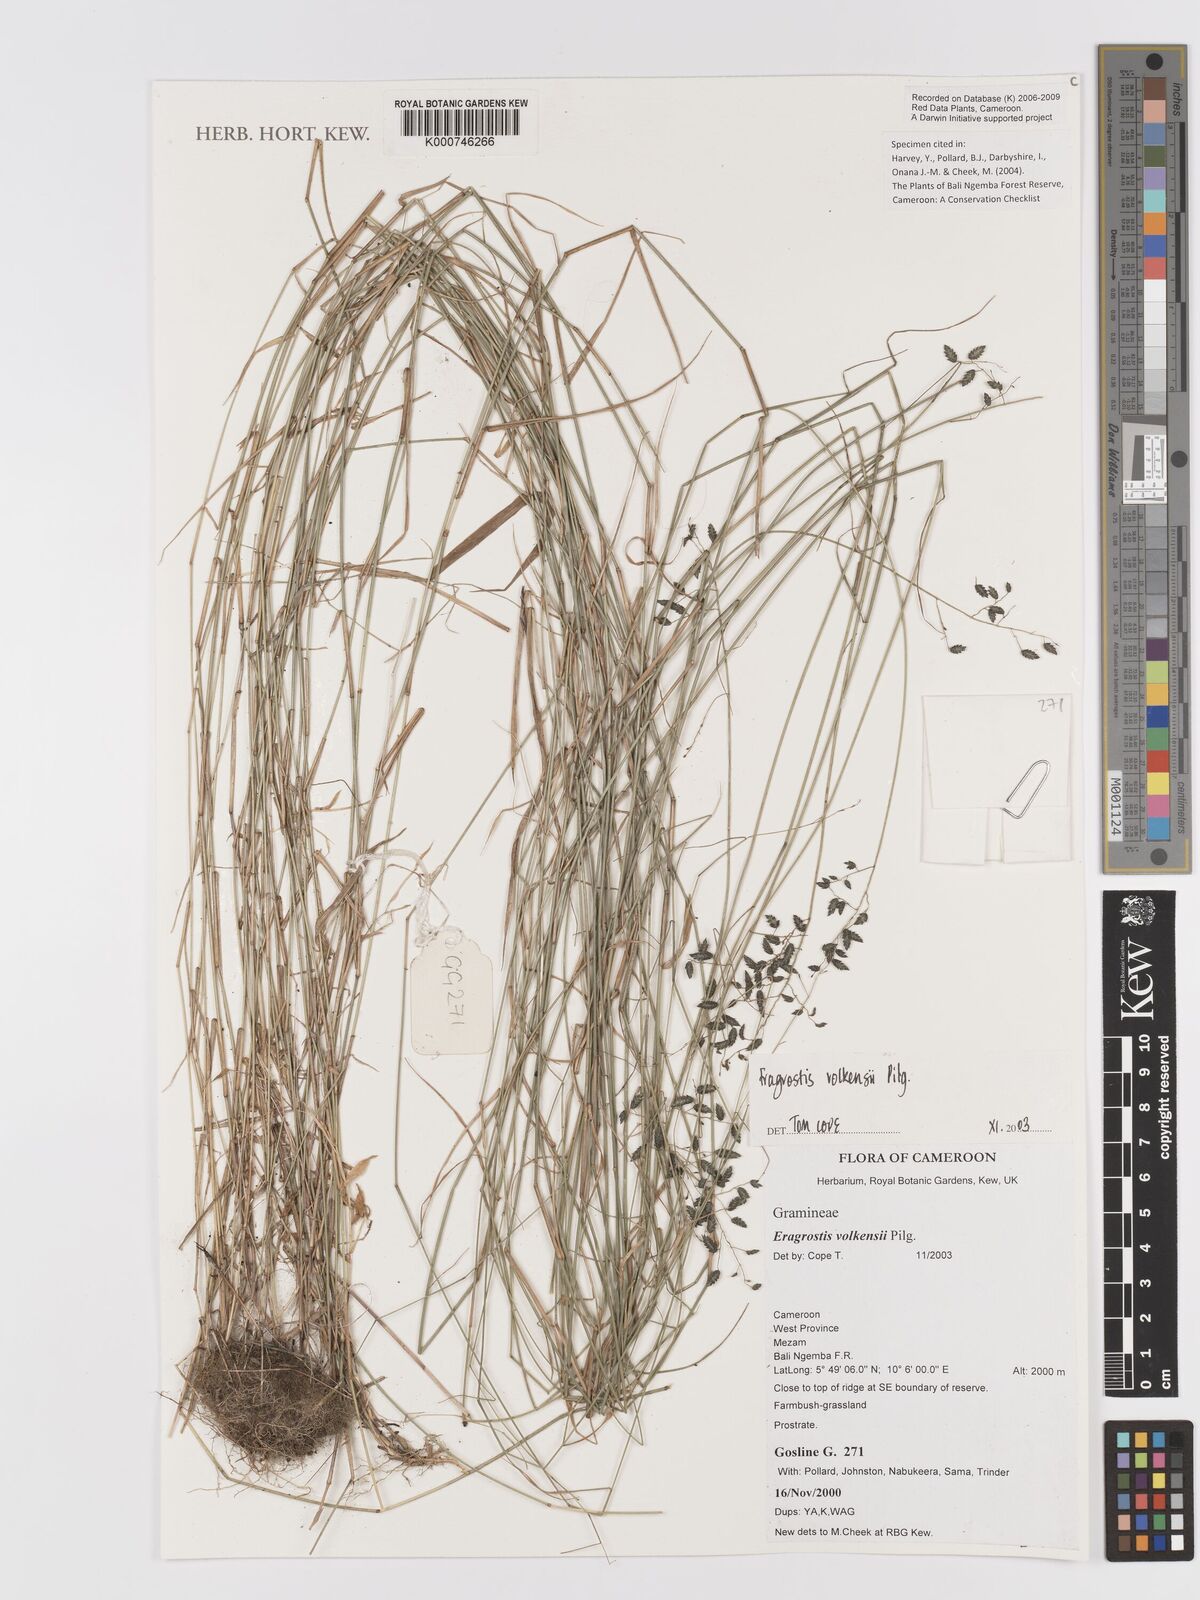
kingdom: Plantae
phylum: Tracheophyta
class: Liliopsida
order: Poales
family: Poaceae
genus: Eragrostis
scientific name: Eragrostis volkensii
